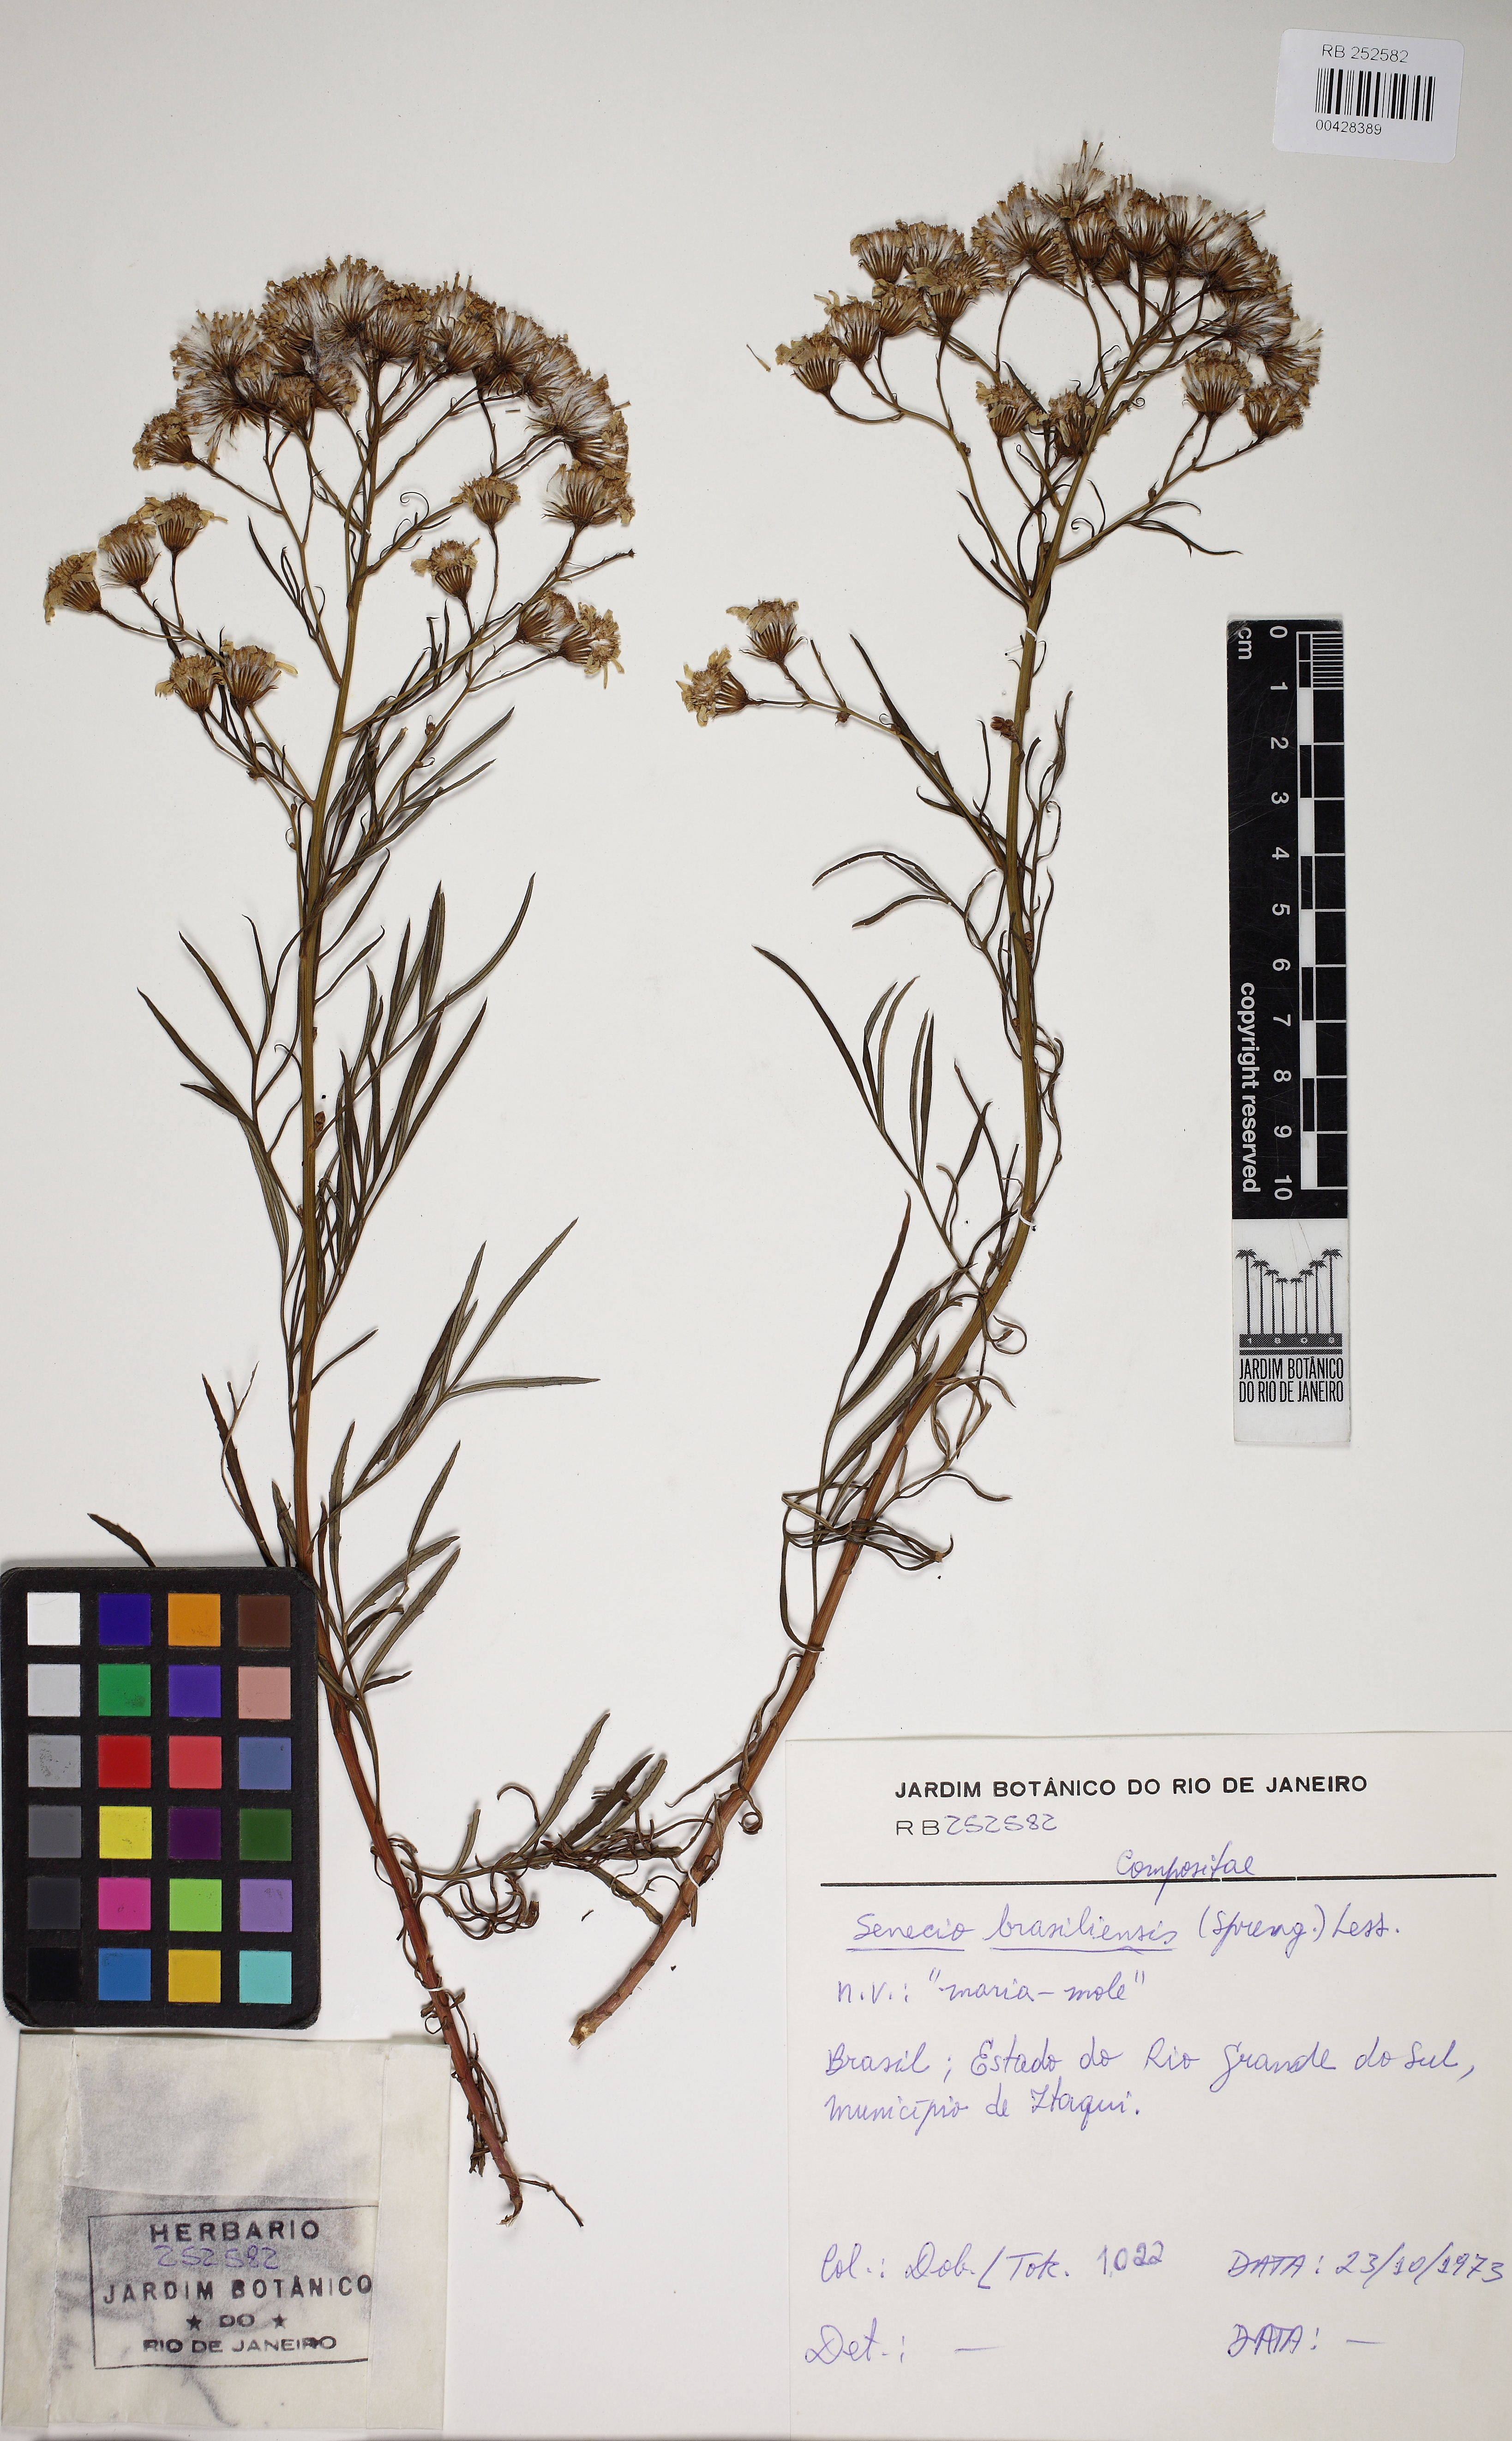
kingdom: Plantae
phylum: Tracheophyta
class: Magnoliopsida
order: Asterales
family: Asteraceae
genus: Senecio
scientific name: Senecio brasiliensis
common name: Hemp-leaf ragwort
